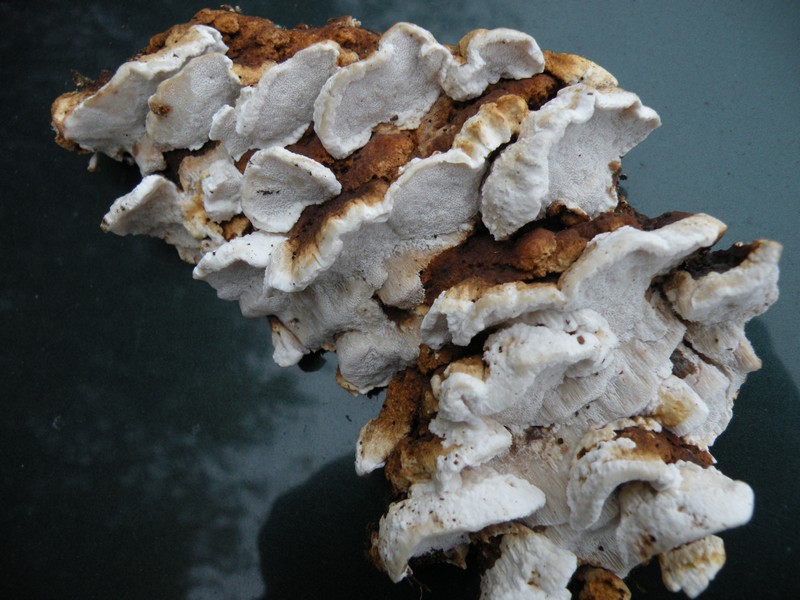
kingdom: Fungi
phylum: Basidiomycota
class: Agaricomycetes
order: Polyporales
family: Fomitopsidaceae
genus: Neoantrodia
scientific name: Neoantrodia serialis
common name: række-sejporesvamp
